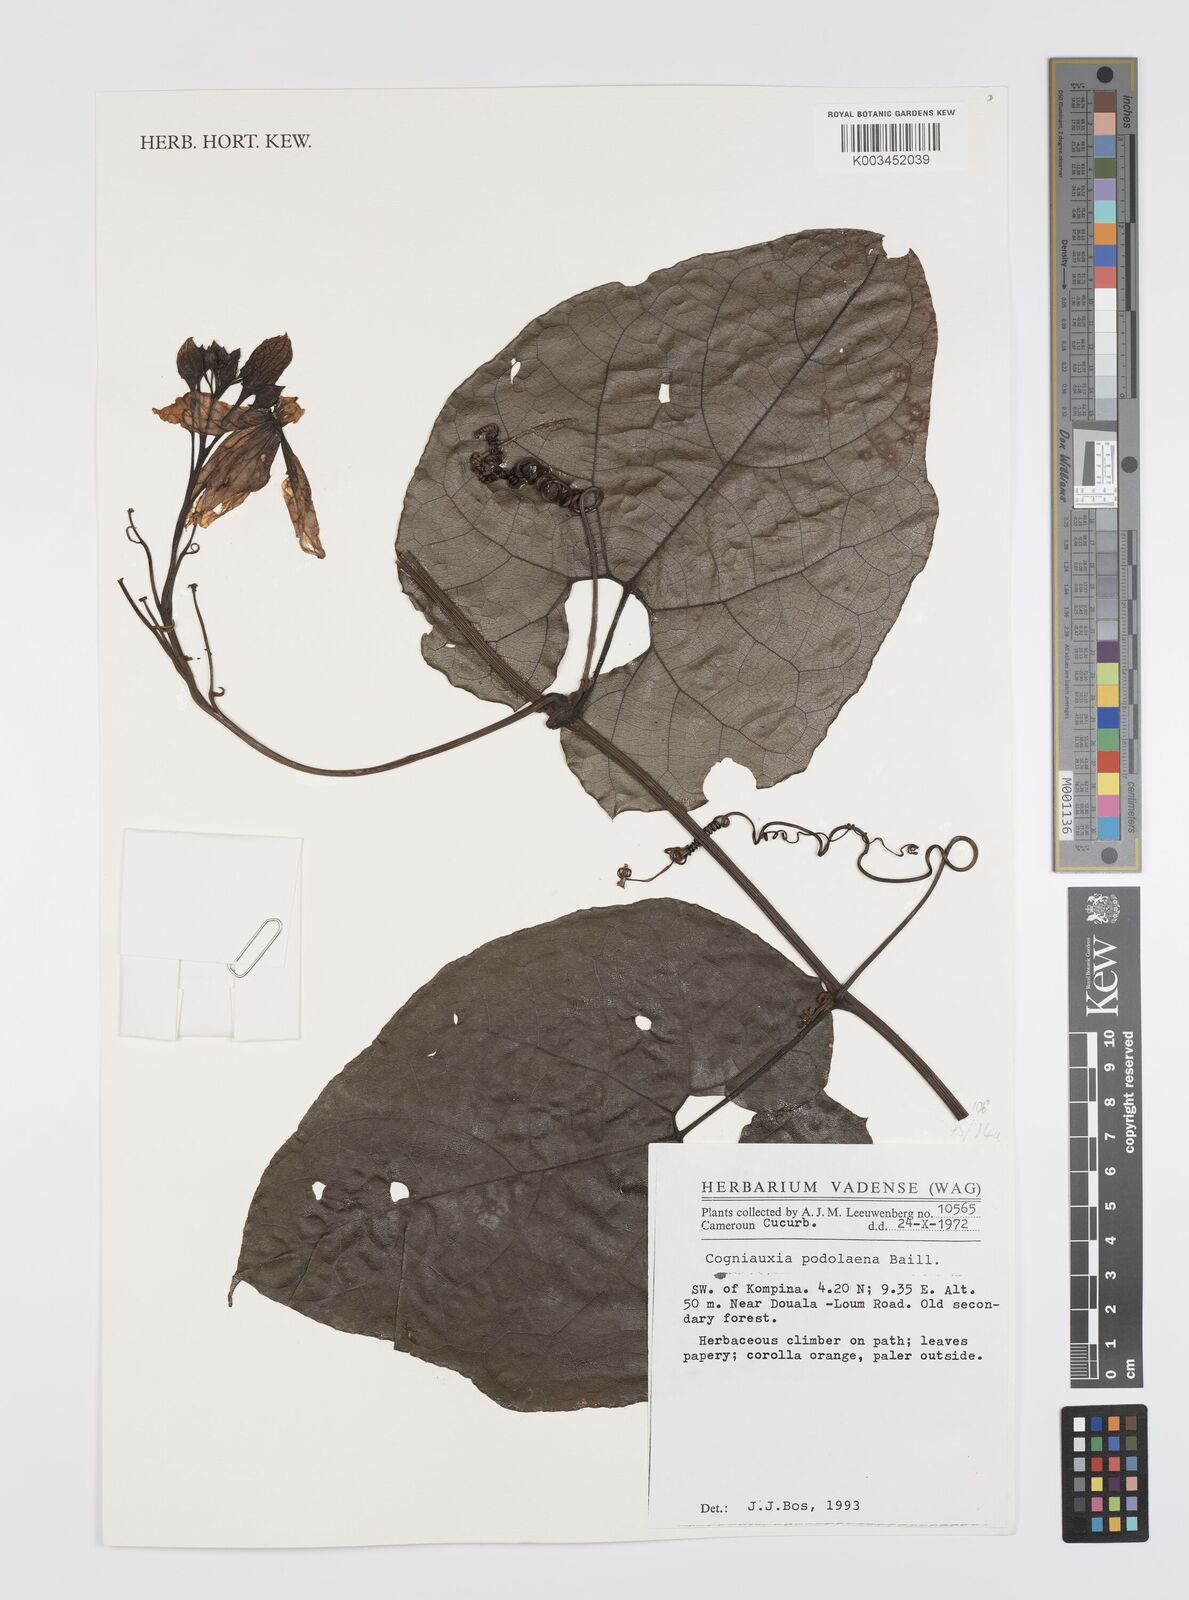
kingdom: Plantae
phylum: Tracheophyta
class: Magnoliopsida
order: Cucurbitales
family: Cucurbitaceae
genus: Cogniauxia
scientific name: Cogniauxia podolaena
